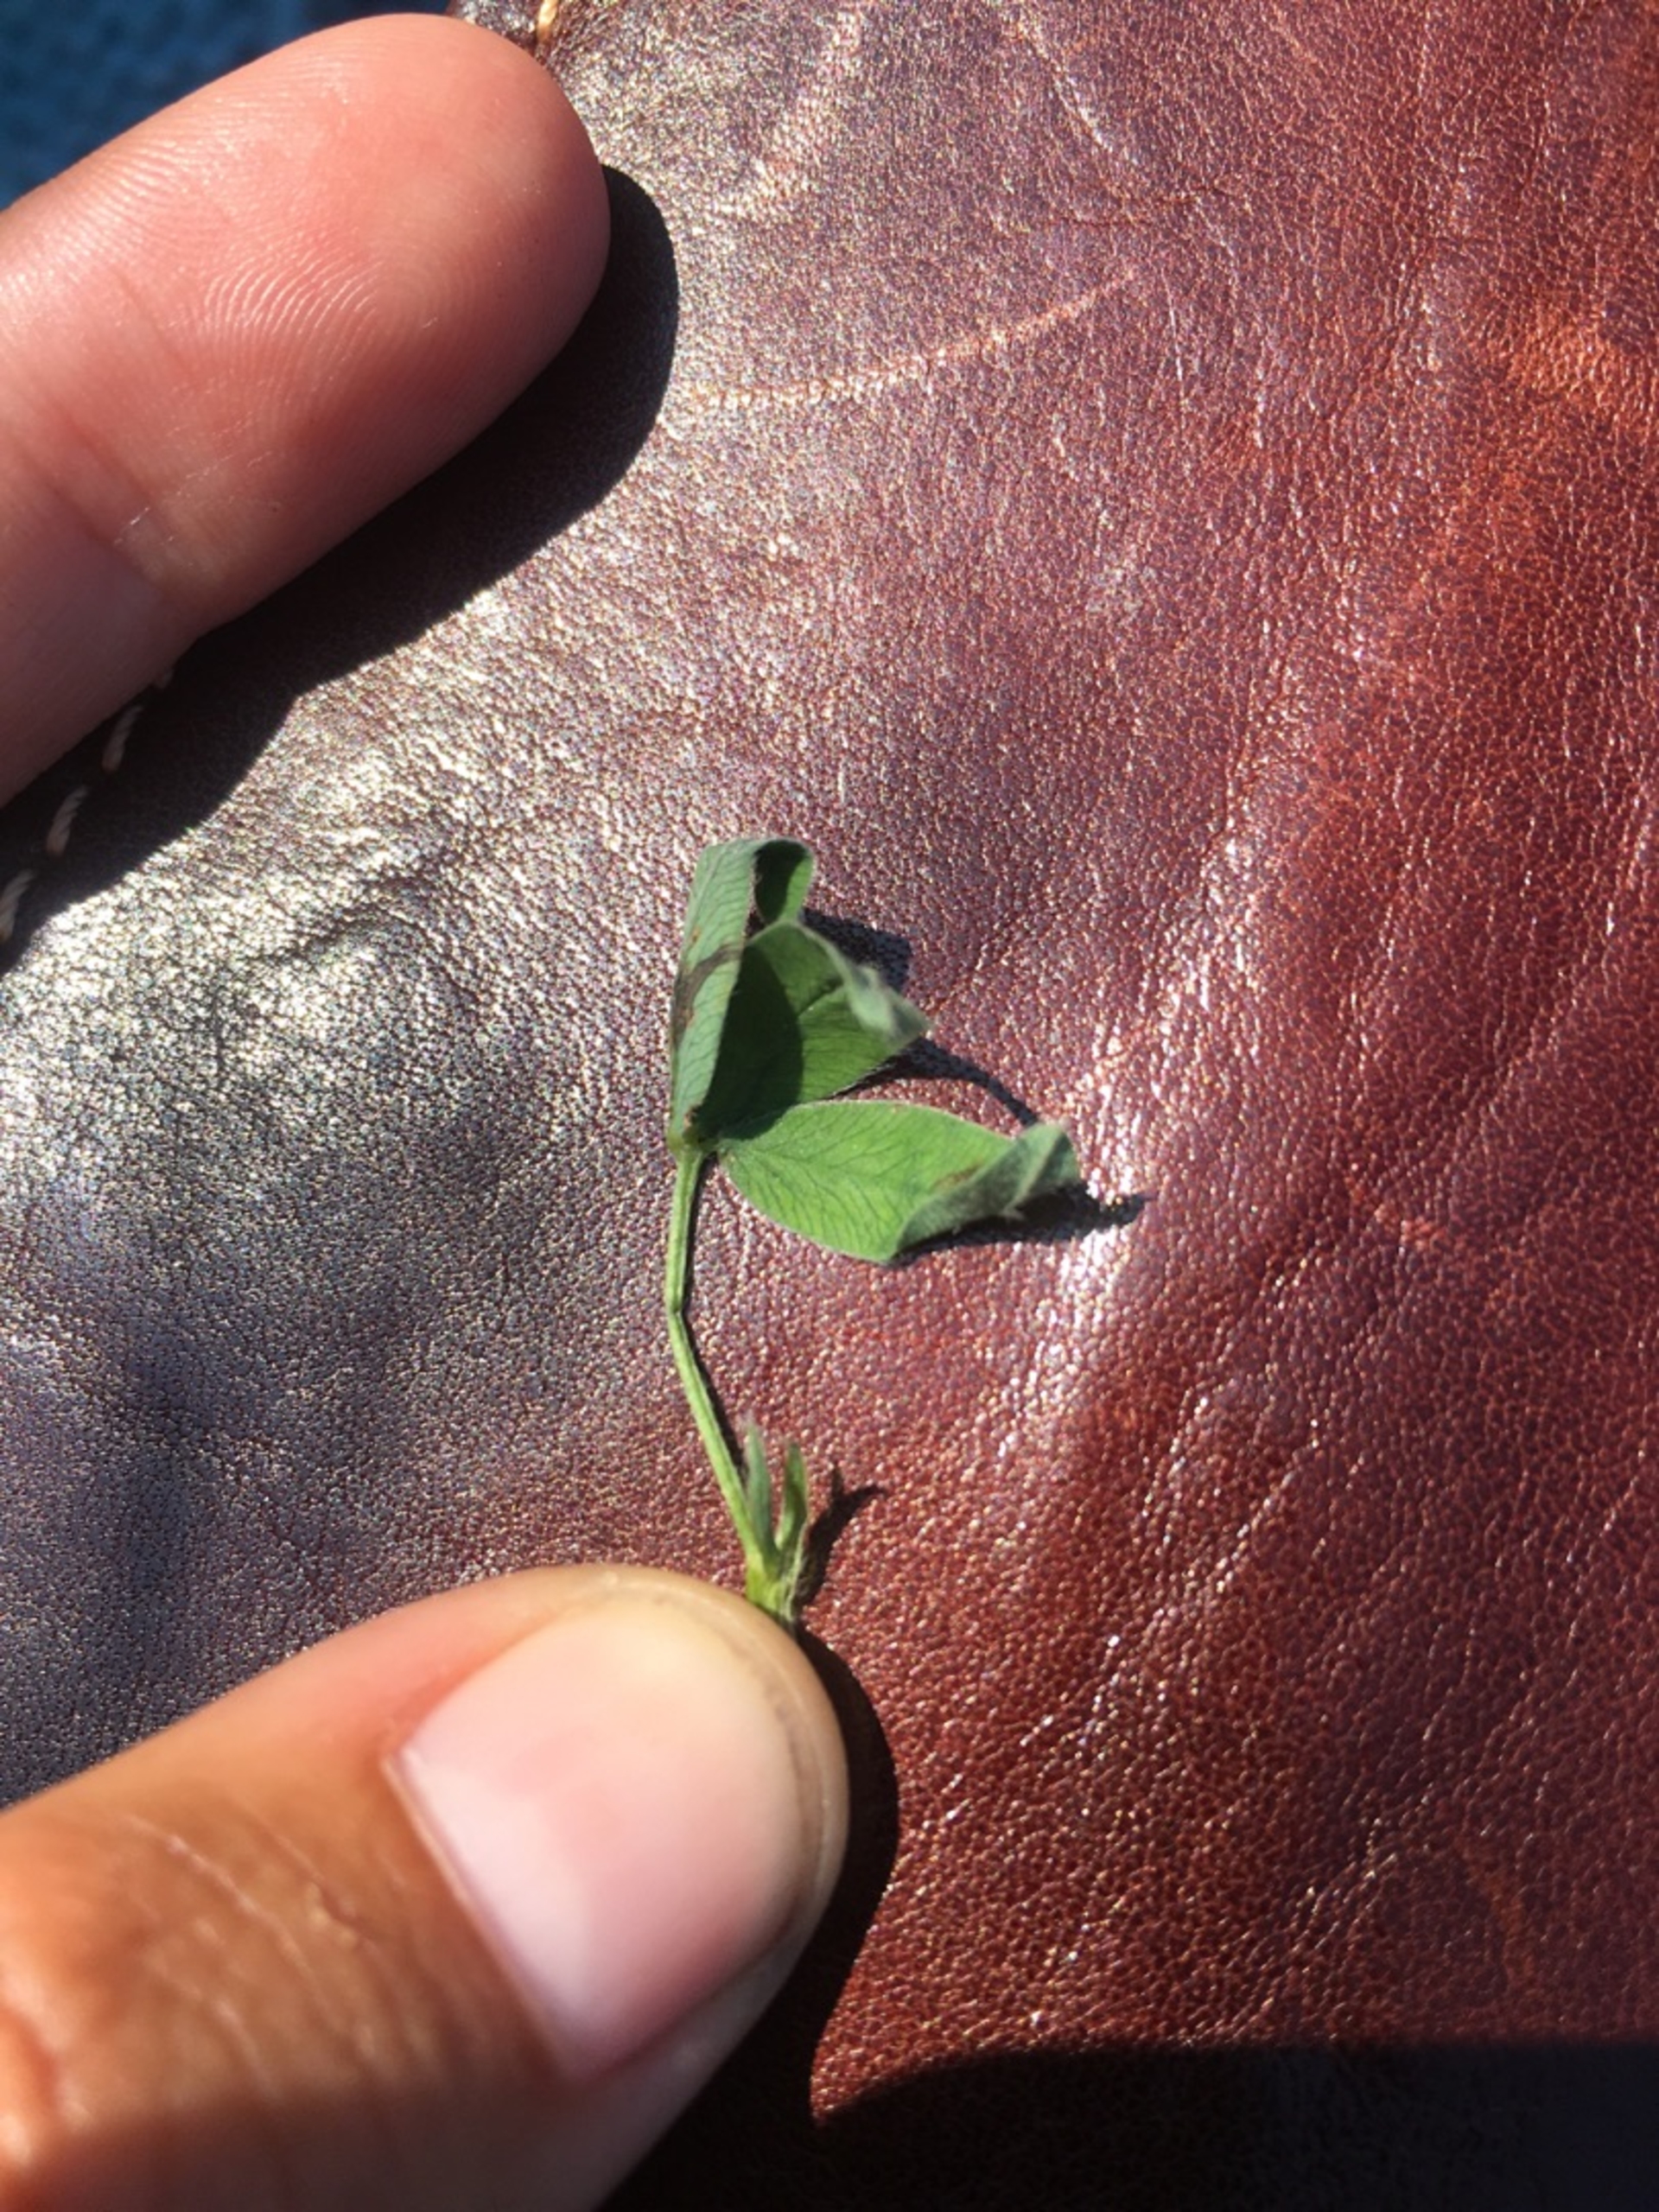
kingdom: Plantae
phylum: Tracheophyta
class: Magnoliopsida
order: Fabales
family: Fabaceae
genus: Trifolium
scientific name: Trifolium medium
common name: Bugtet kløver
